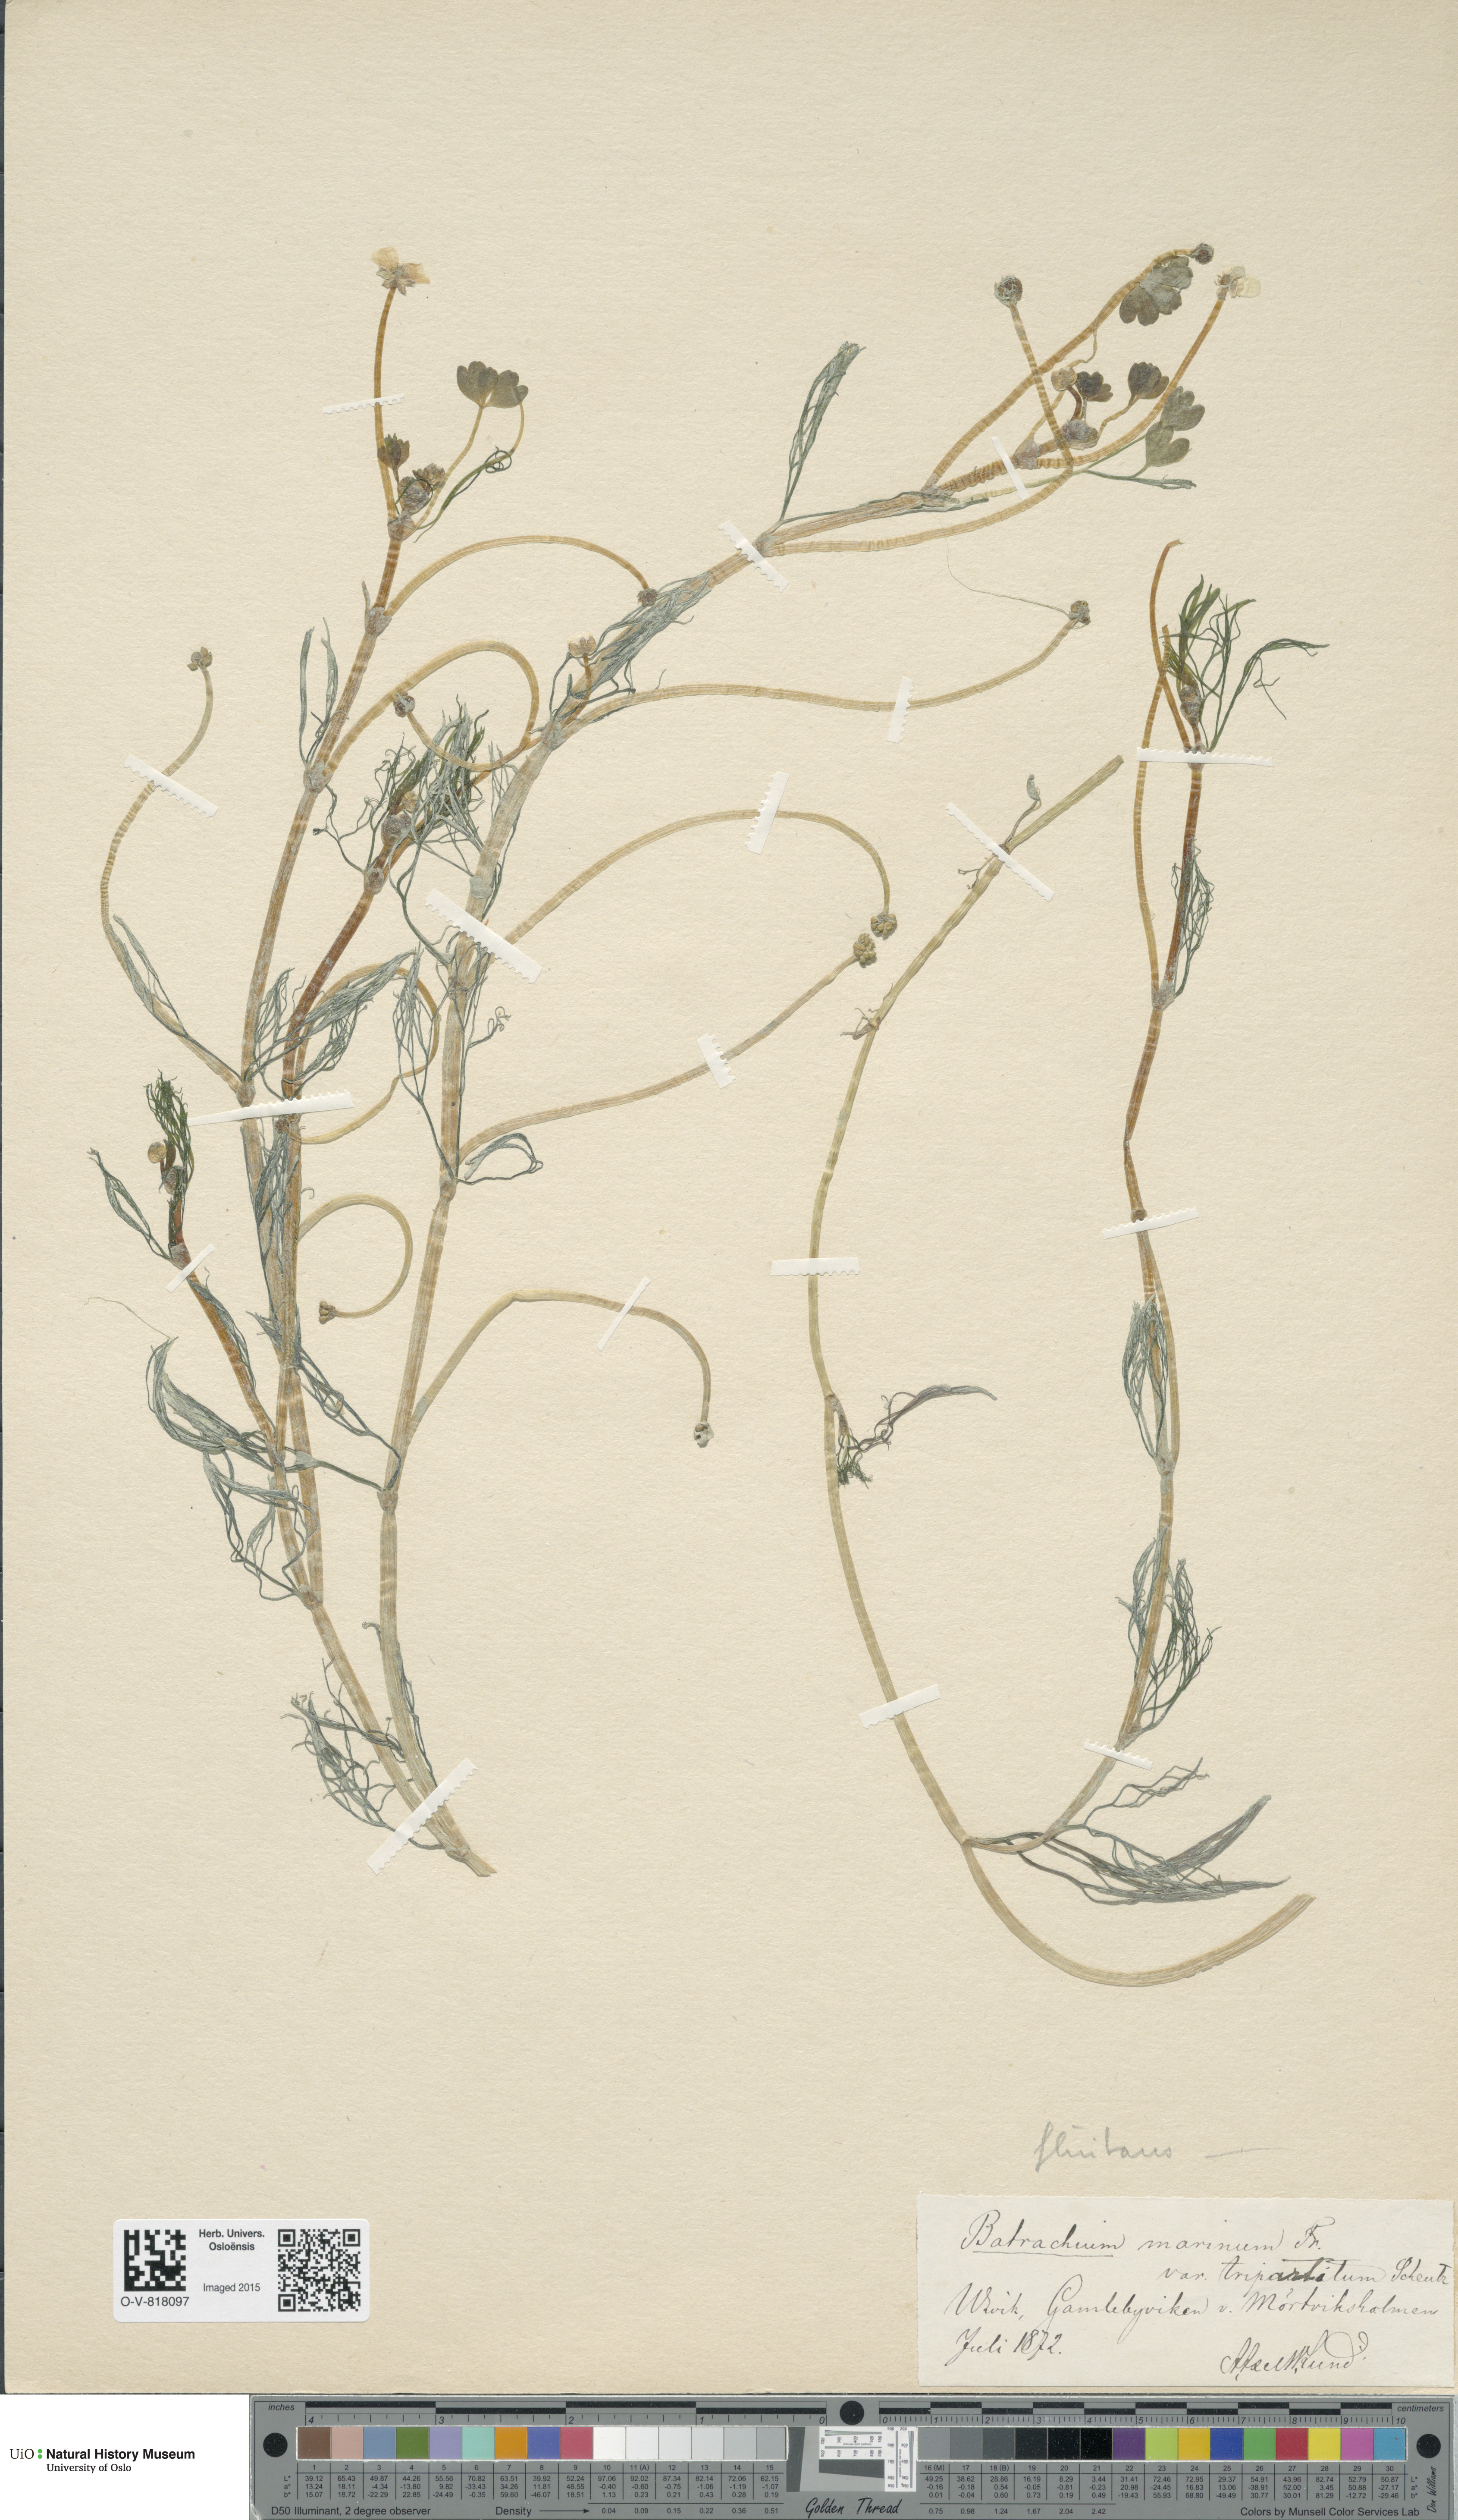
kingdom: Plantae
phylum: Tracheophyta
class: Magnoliopsida
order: Ranunculales
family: Ranunculaceae
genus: Ranunculus
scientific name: Ranunculus peltatus
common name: Pond water-crowfoot
